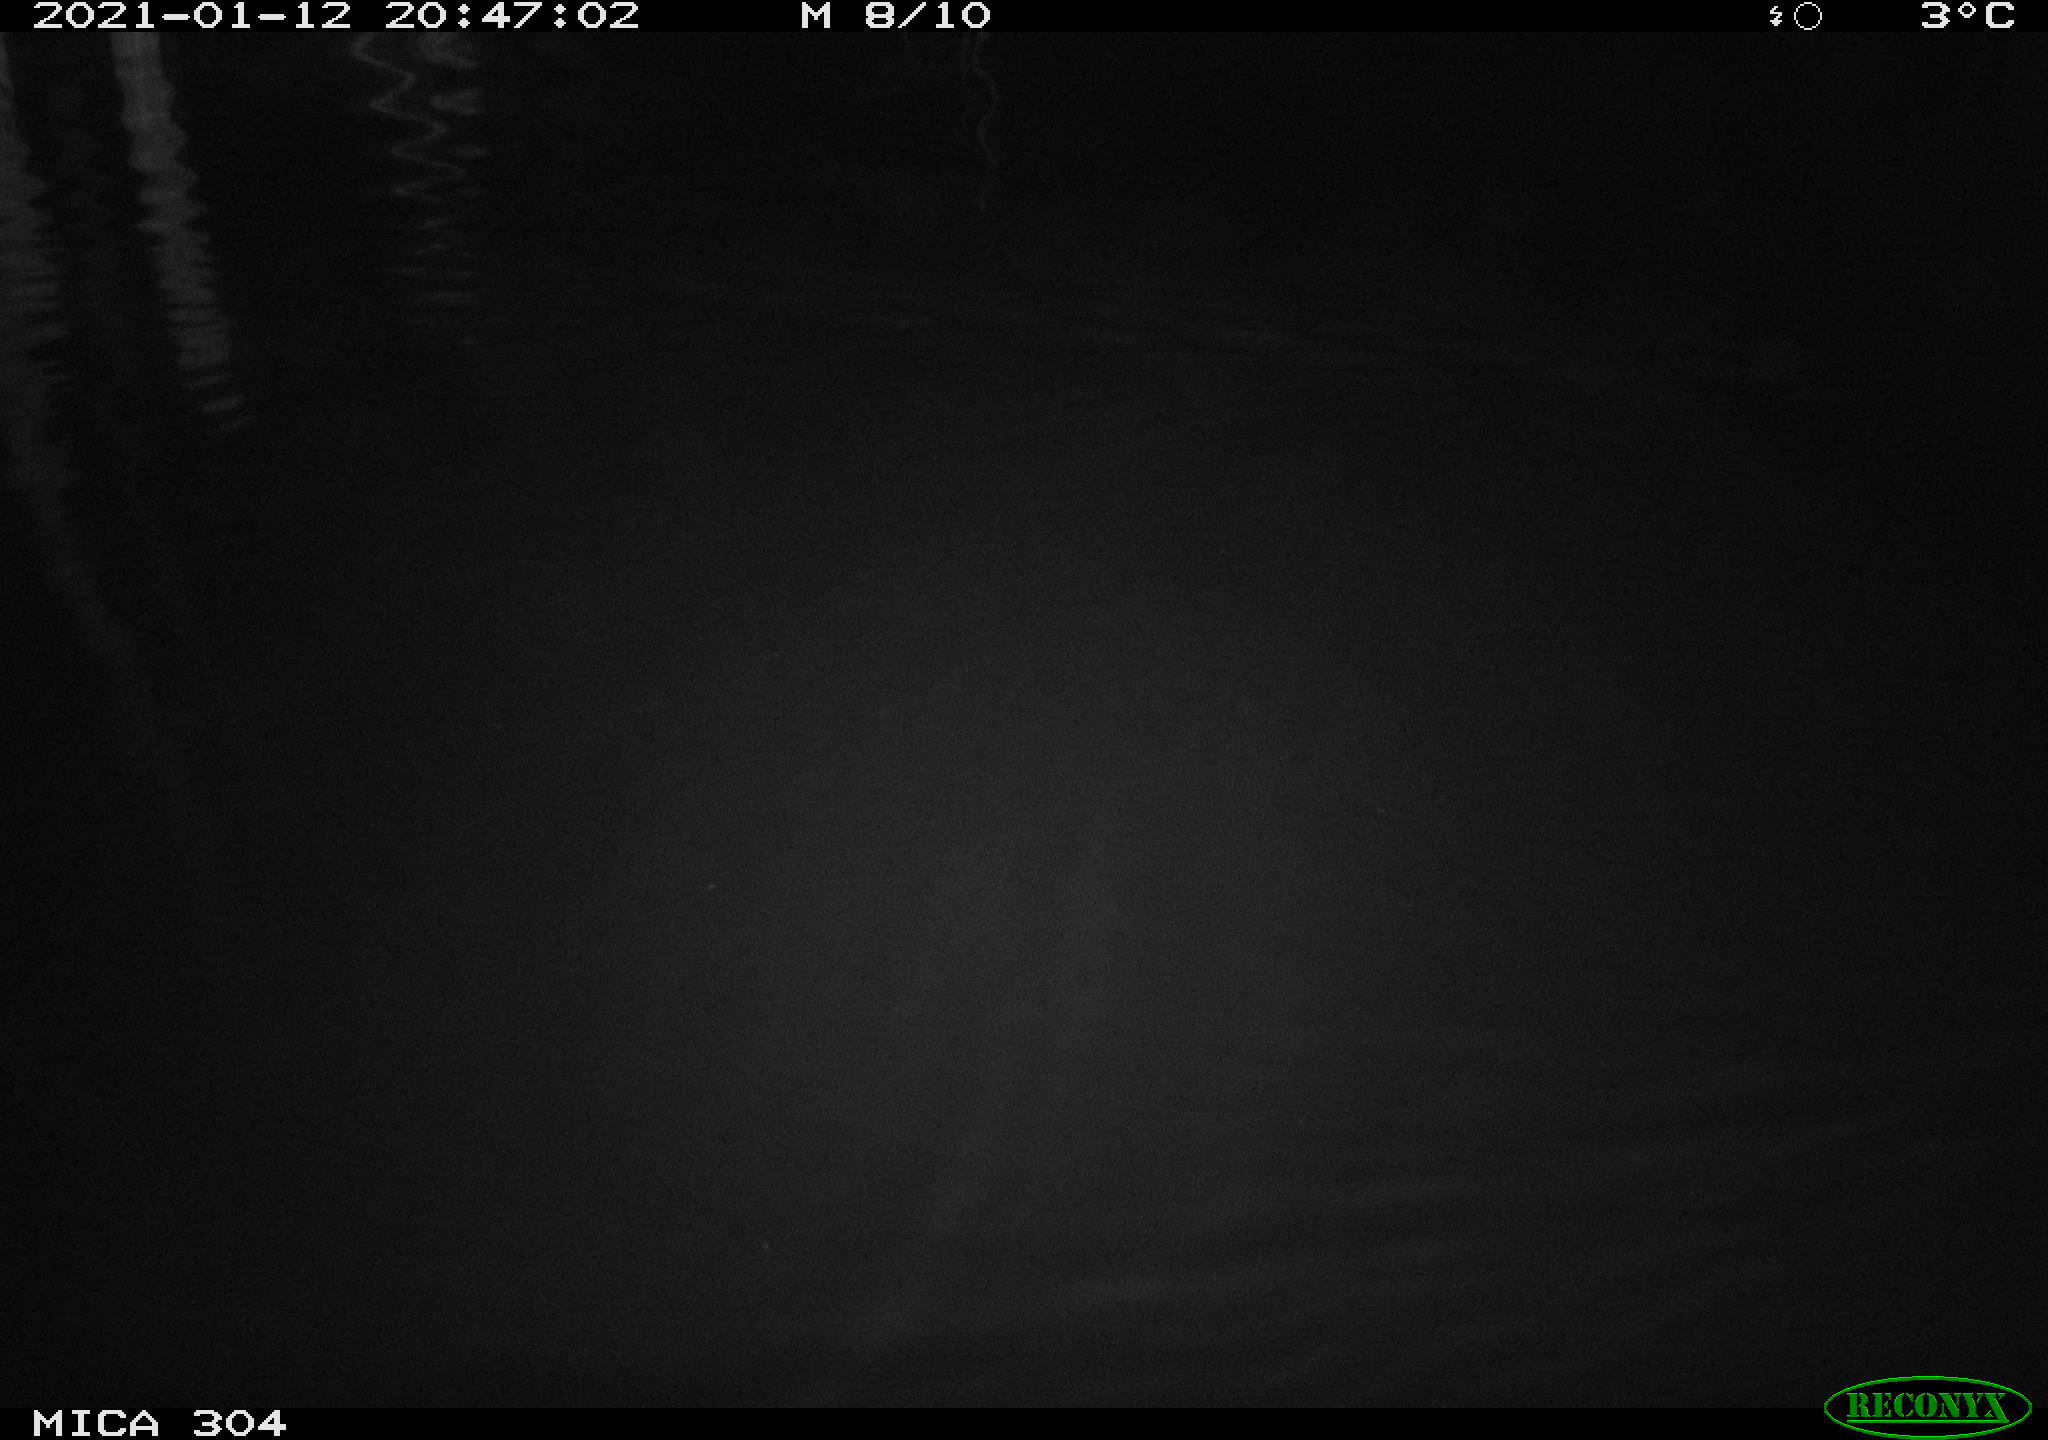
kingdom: Animalia
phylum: Chordata
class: Mammalia
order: Rodentia
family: Muridae
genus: Rattus
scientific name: Rattus norvegicus
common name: Brown rat
